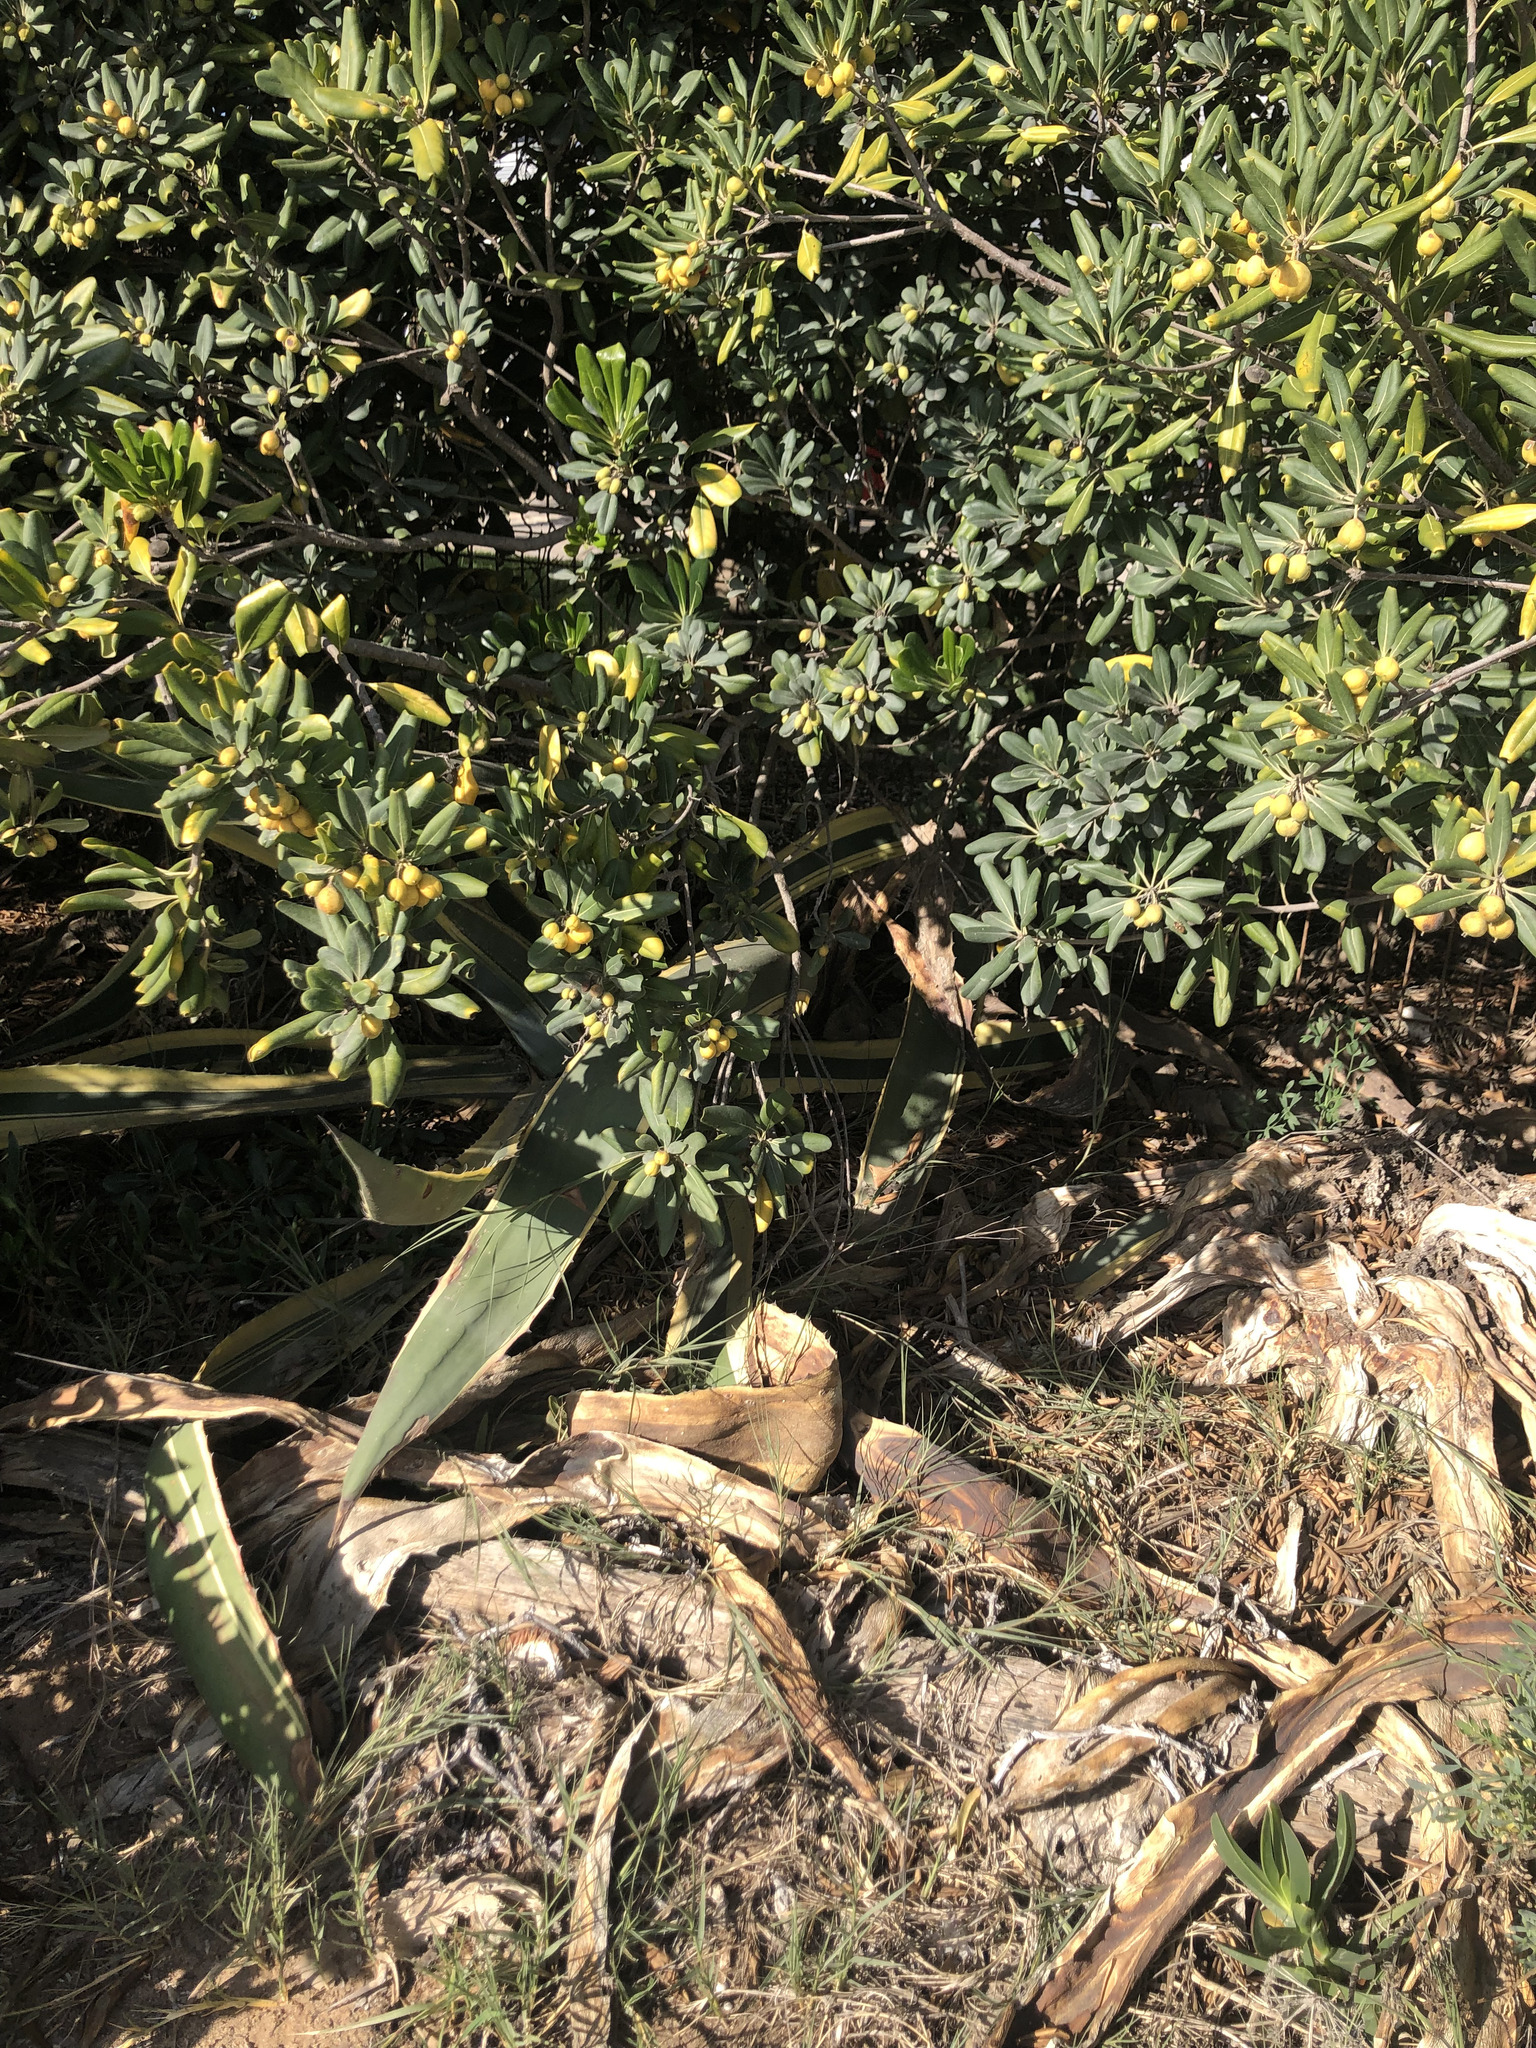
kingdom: Plantae
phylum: Tracheophyta
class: Liliopsida
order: Asparagales
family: Asparagaceae
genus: Agave
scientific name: Agave americana
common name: Centuryplant
